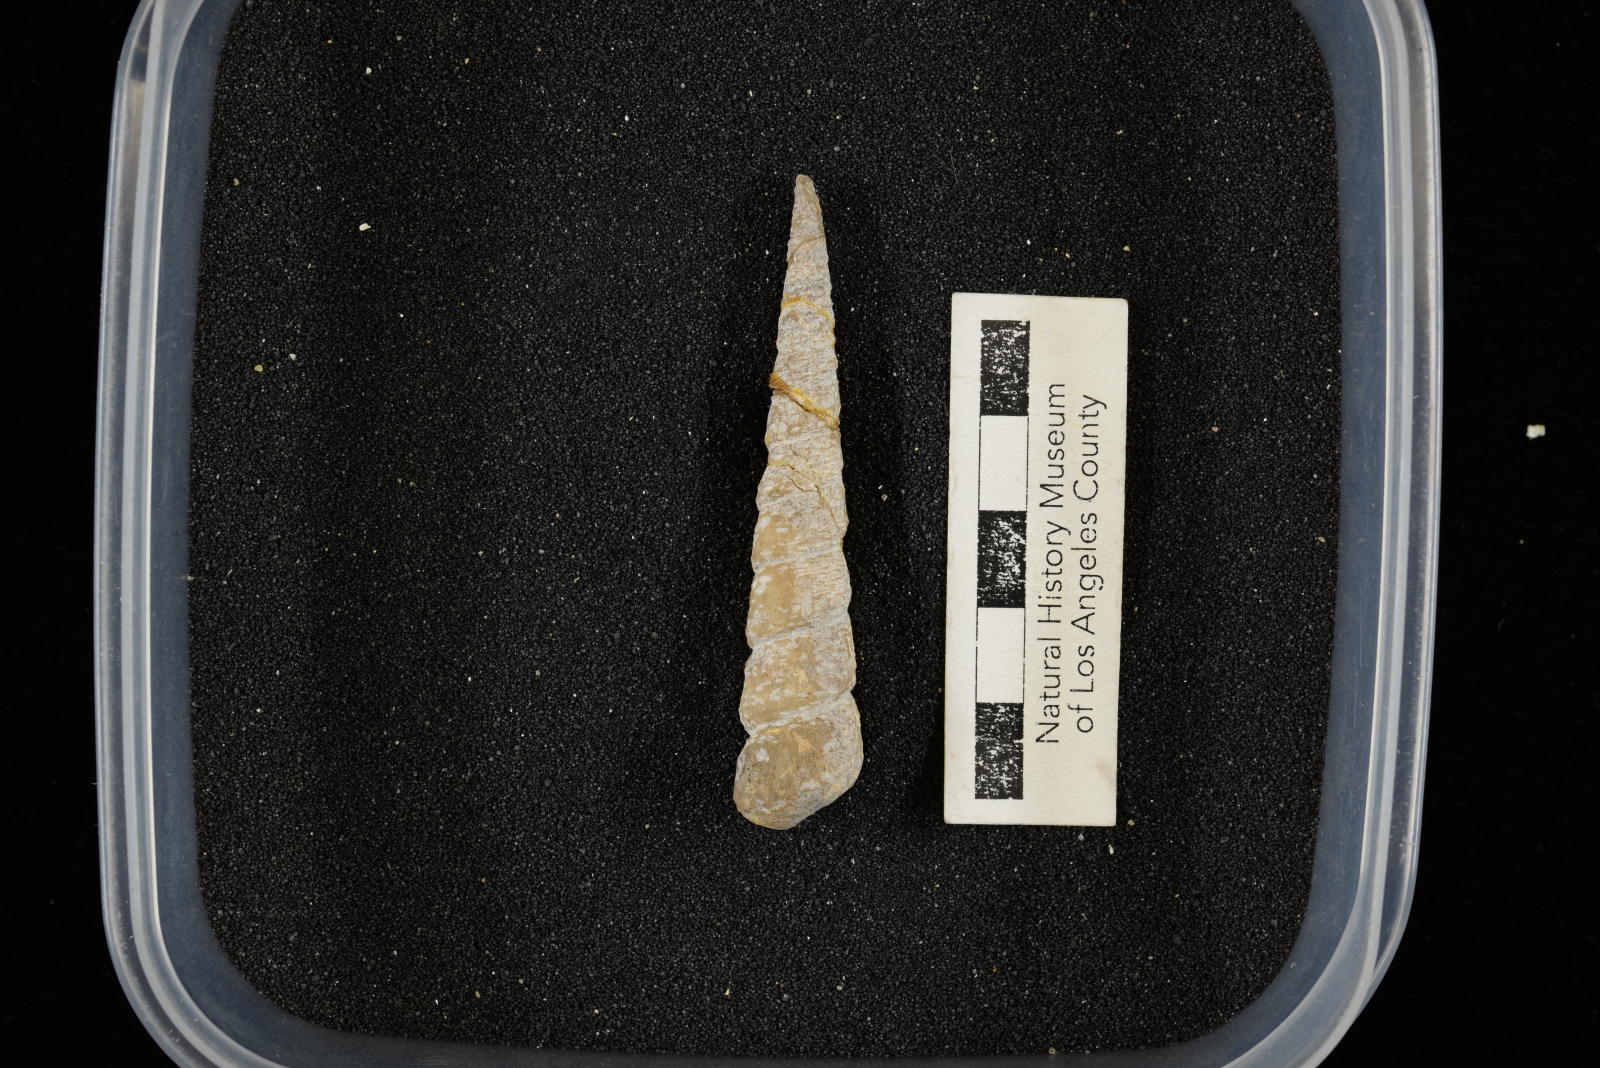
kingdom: Animalia
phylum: Mollusca
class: Gastropoda
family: Turritellidae
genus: Turritella
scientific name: Turritella chaneyi
